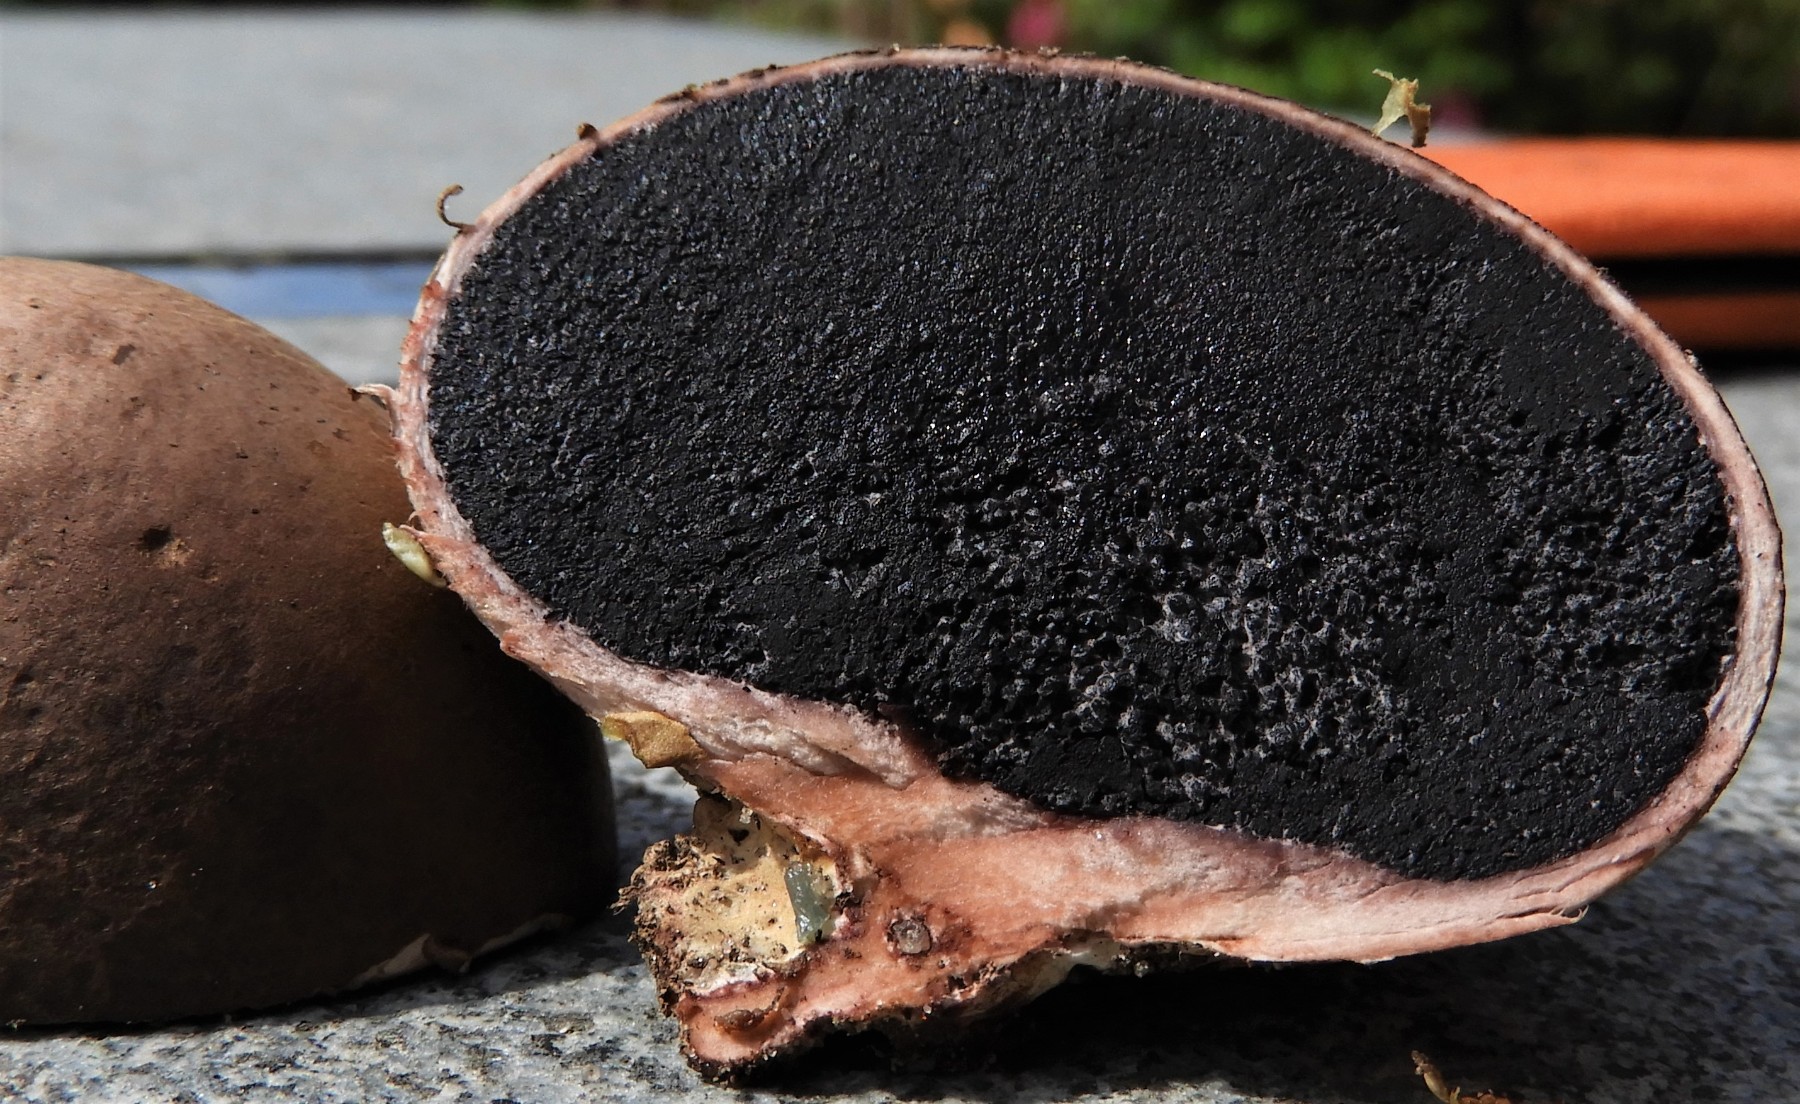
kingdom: Fungi
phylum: Basidiomycota
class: Agaricomycetes
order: Boletales
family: Sclerodermataceae
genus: Scleroderma
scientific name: Scleroderma
